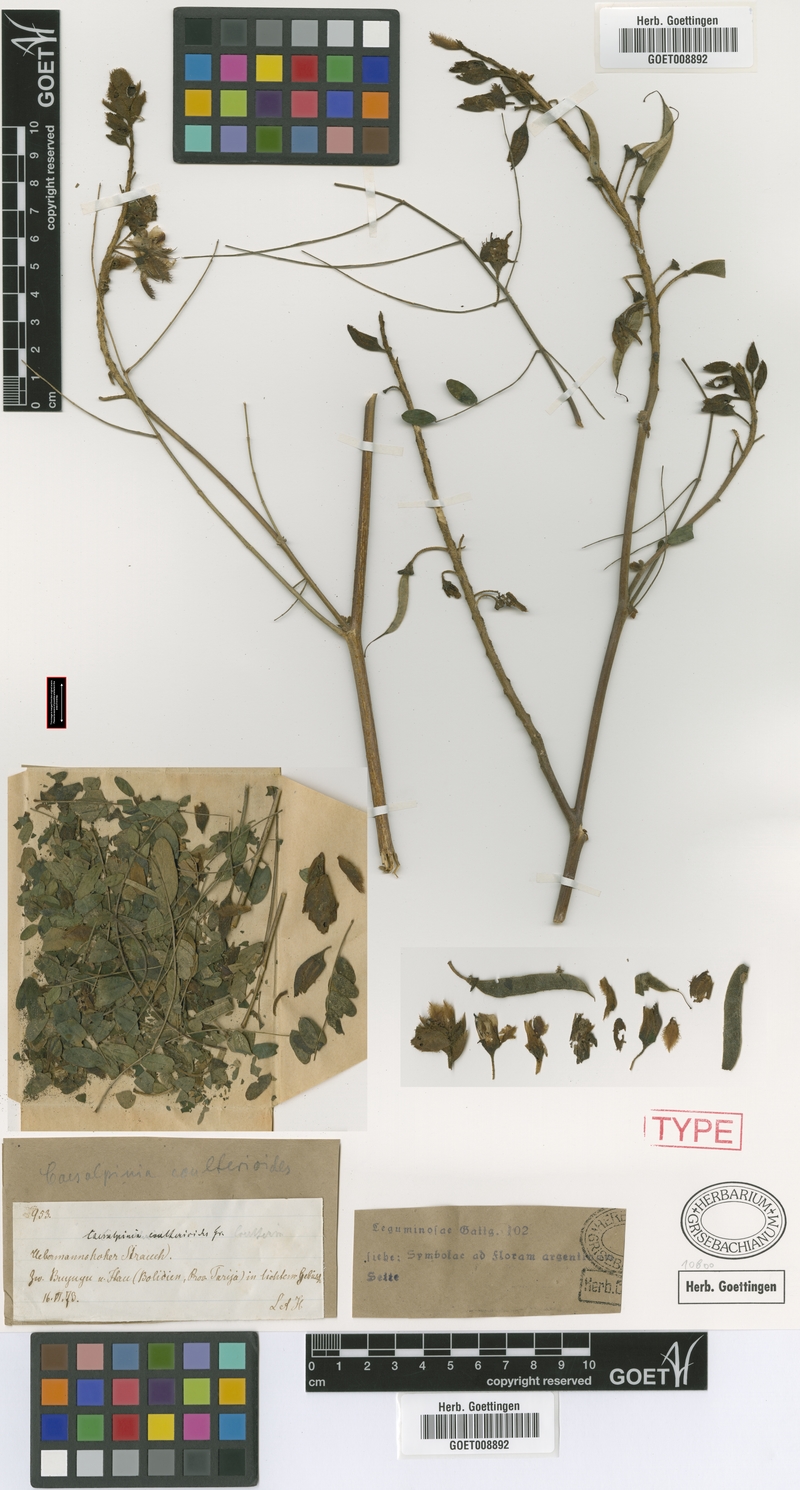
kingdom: Plantae
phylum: Tracheophyta
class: Magnoliopsida
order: Fabales
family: Fabaceae
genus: Erythrostemon
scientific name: Erythrostemon coulterioides
